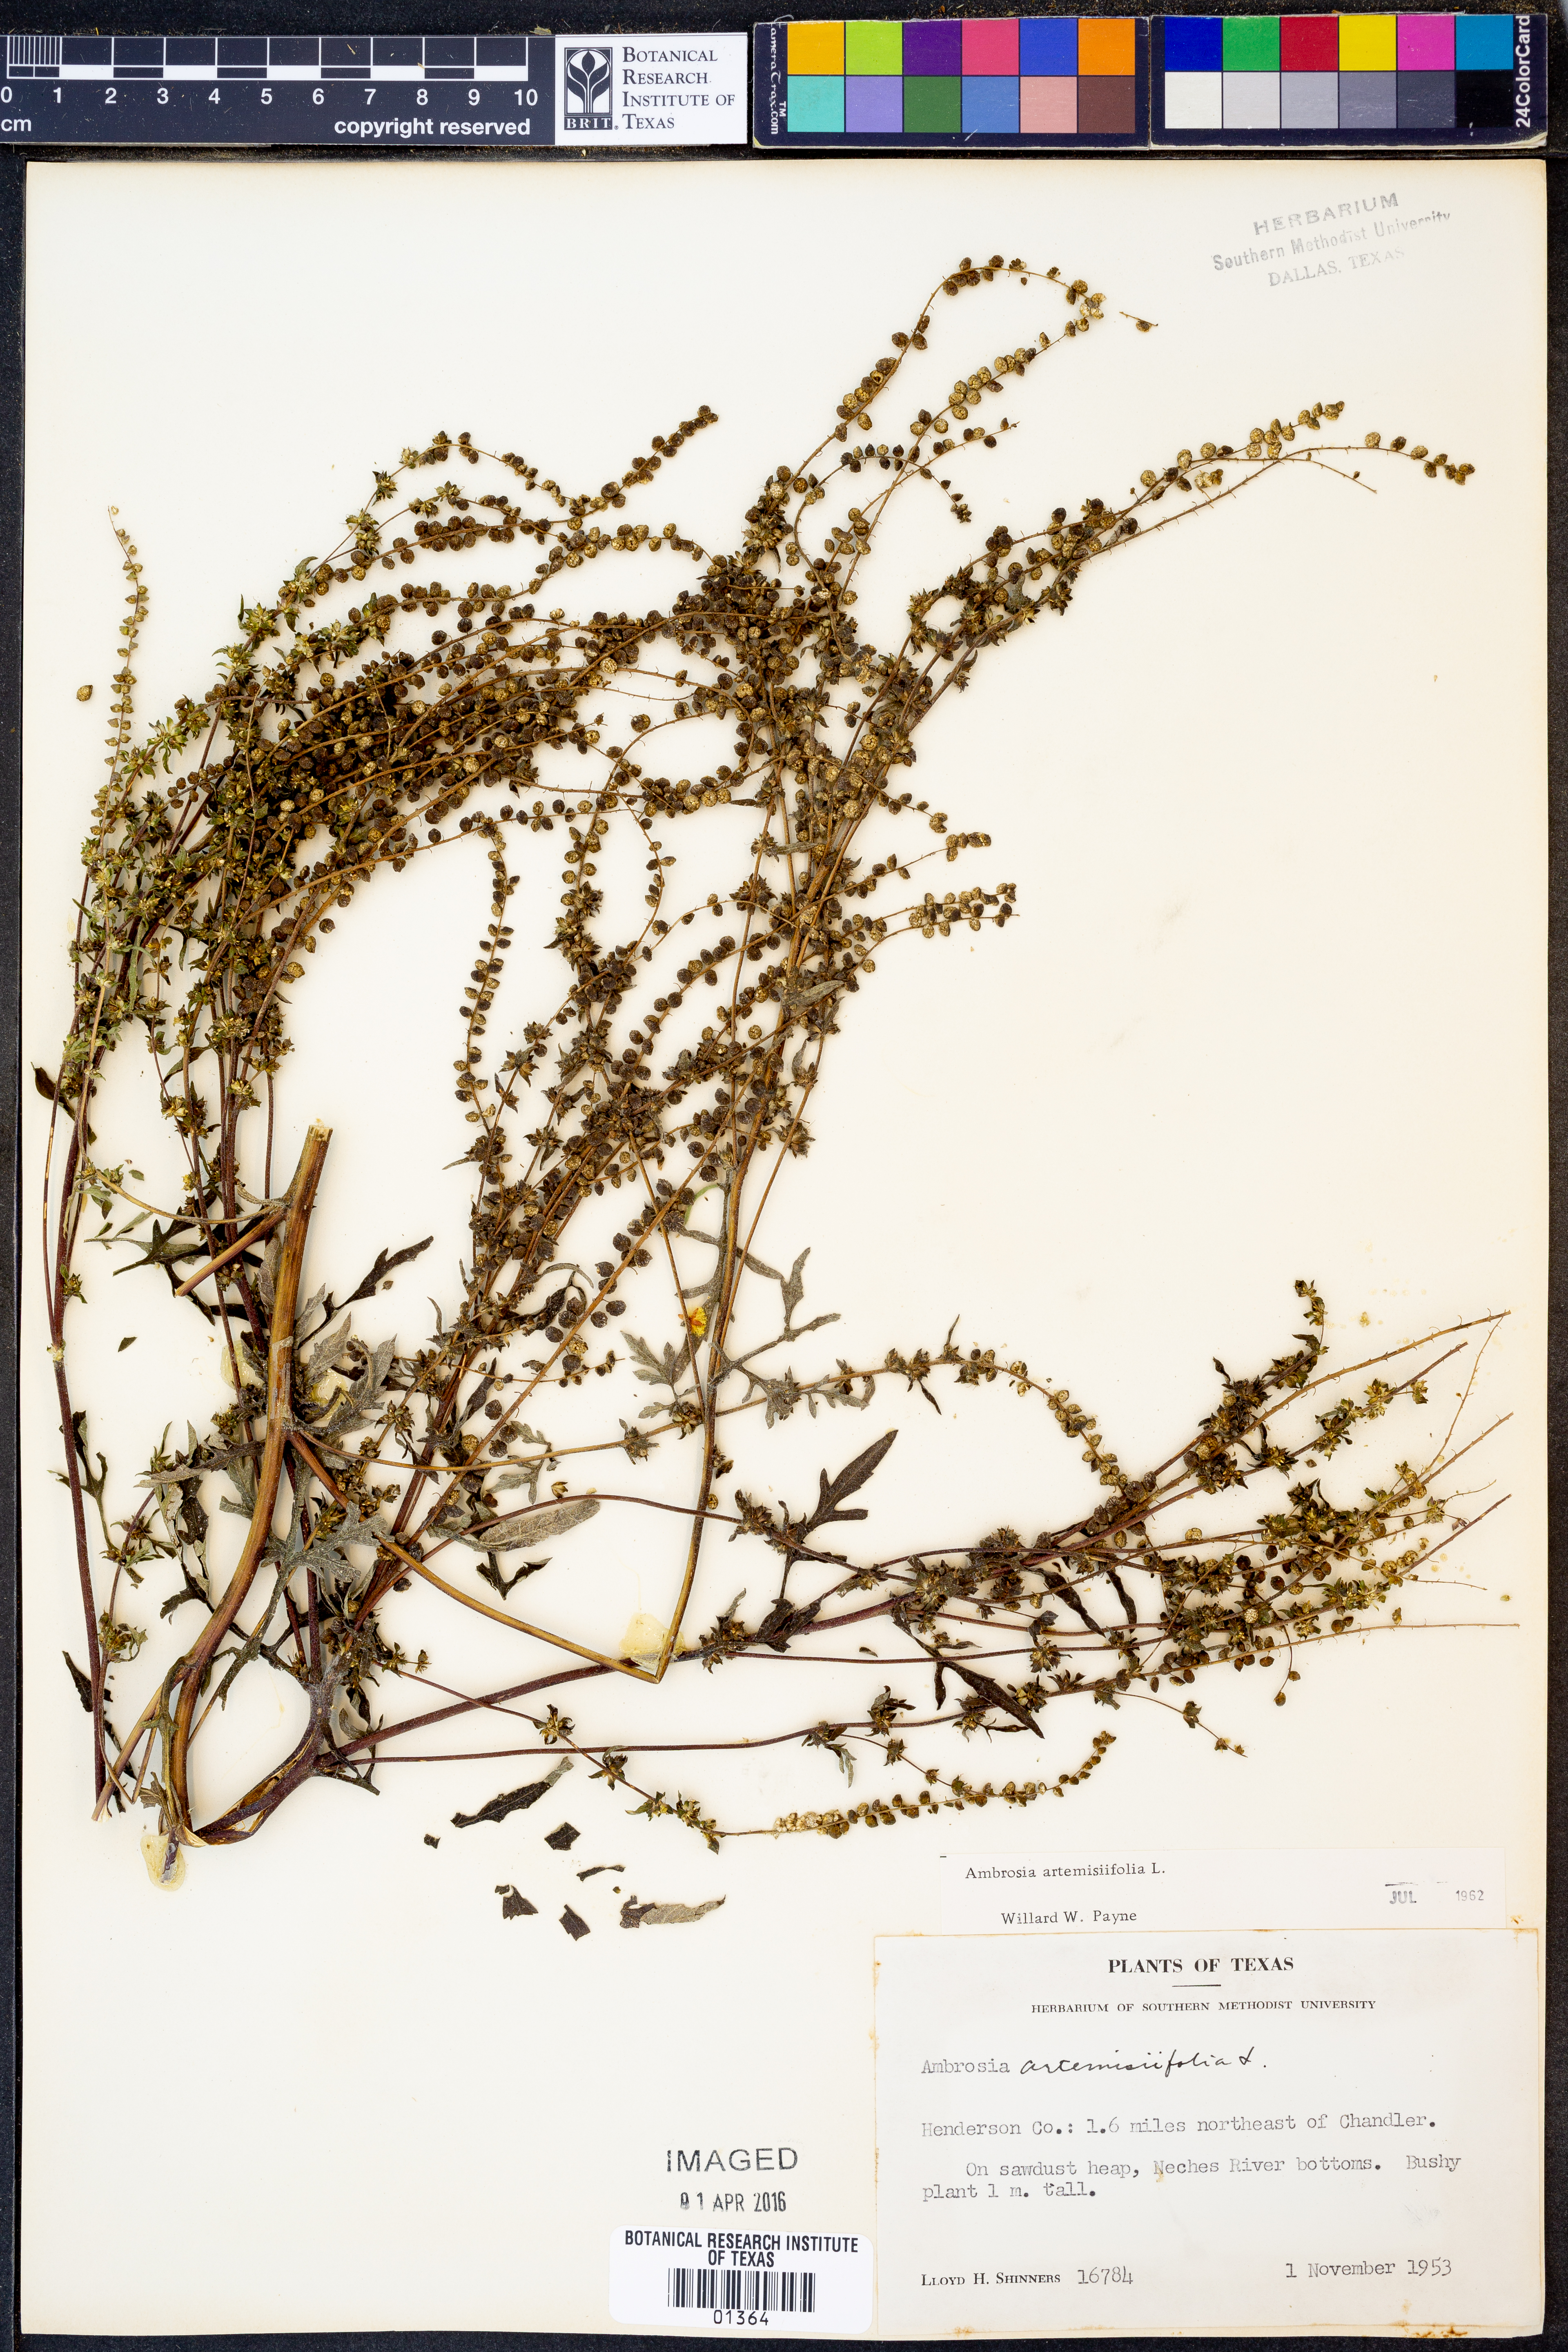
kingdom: Plantae
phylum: Tracheophyta
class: Magnoliopsida
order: Asterales
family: Asteraceae
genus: Ambrosia
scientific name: Ambrosia artemisiifolia
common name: Annual ragweed
